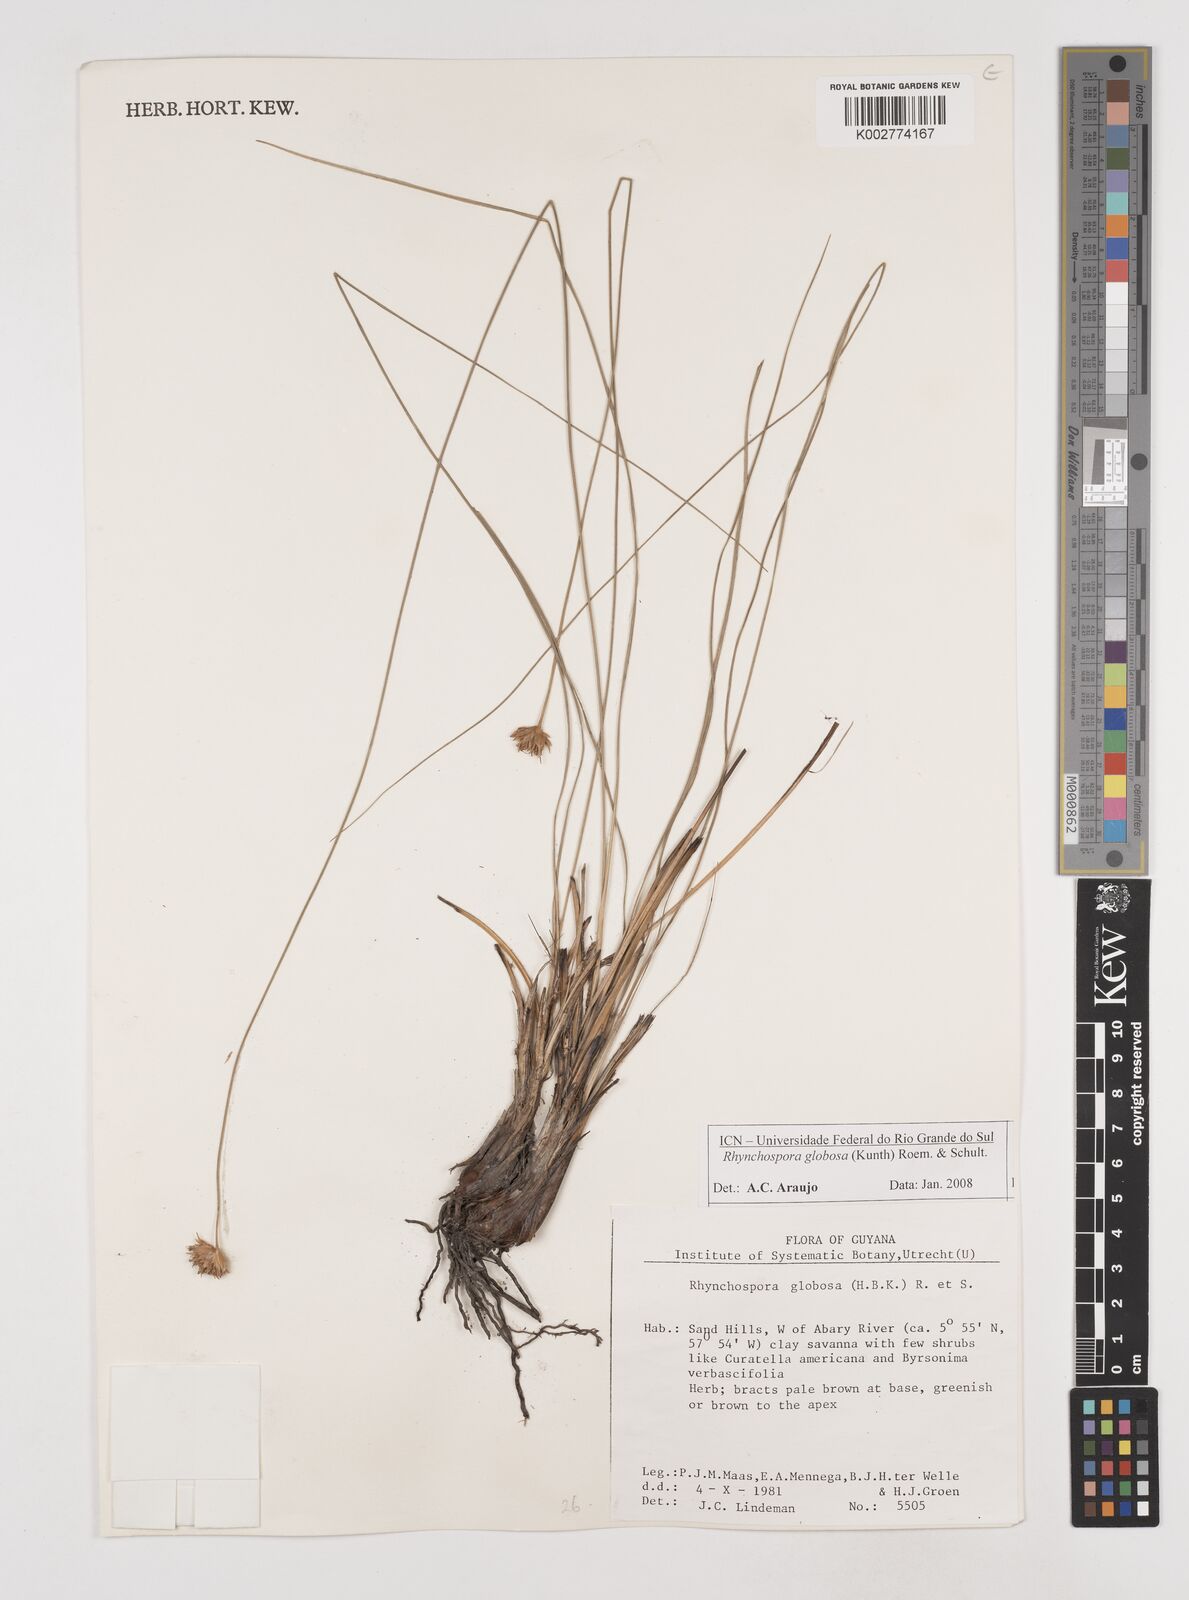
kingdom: Plantae
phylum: Tracheophyta
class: Liliopsida
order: Poales
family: Cyperaceae
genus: Rhynchospora
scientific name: Rhynchospora globosa
